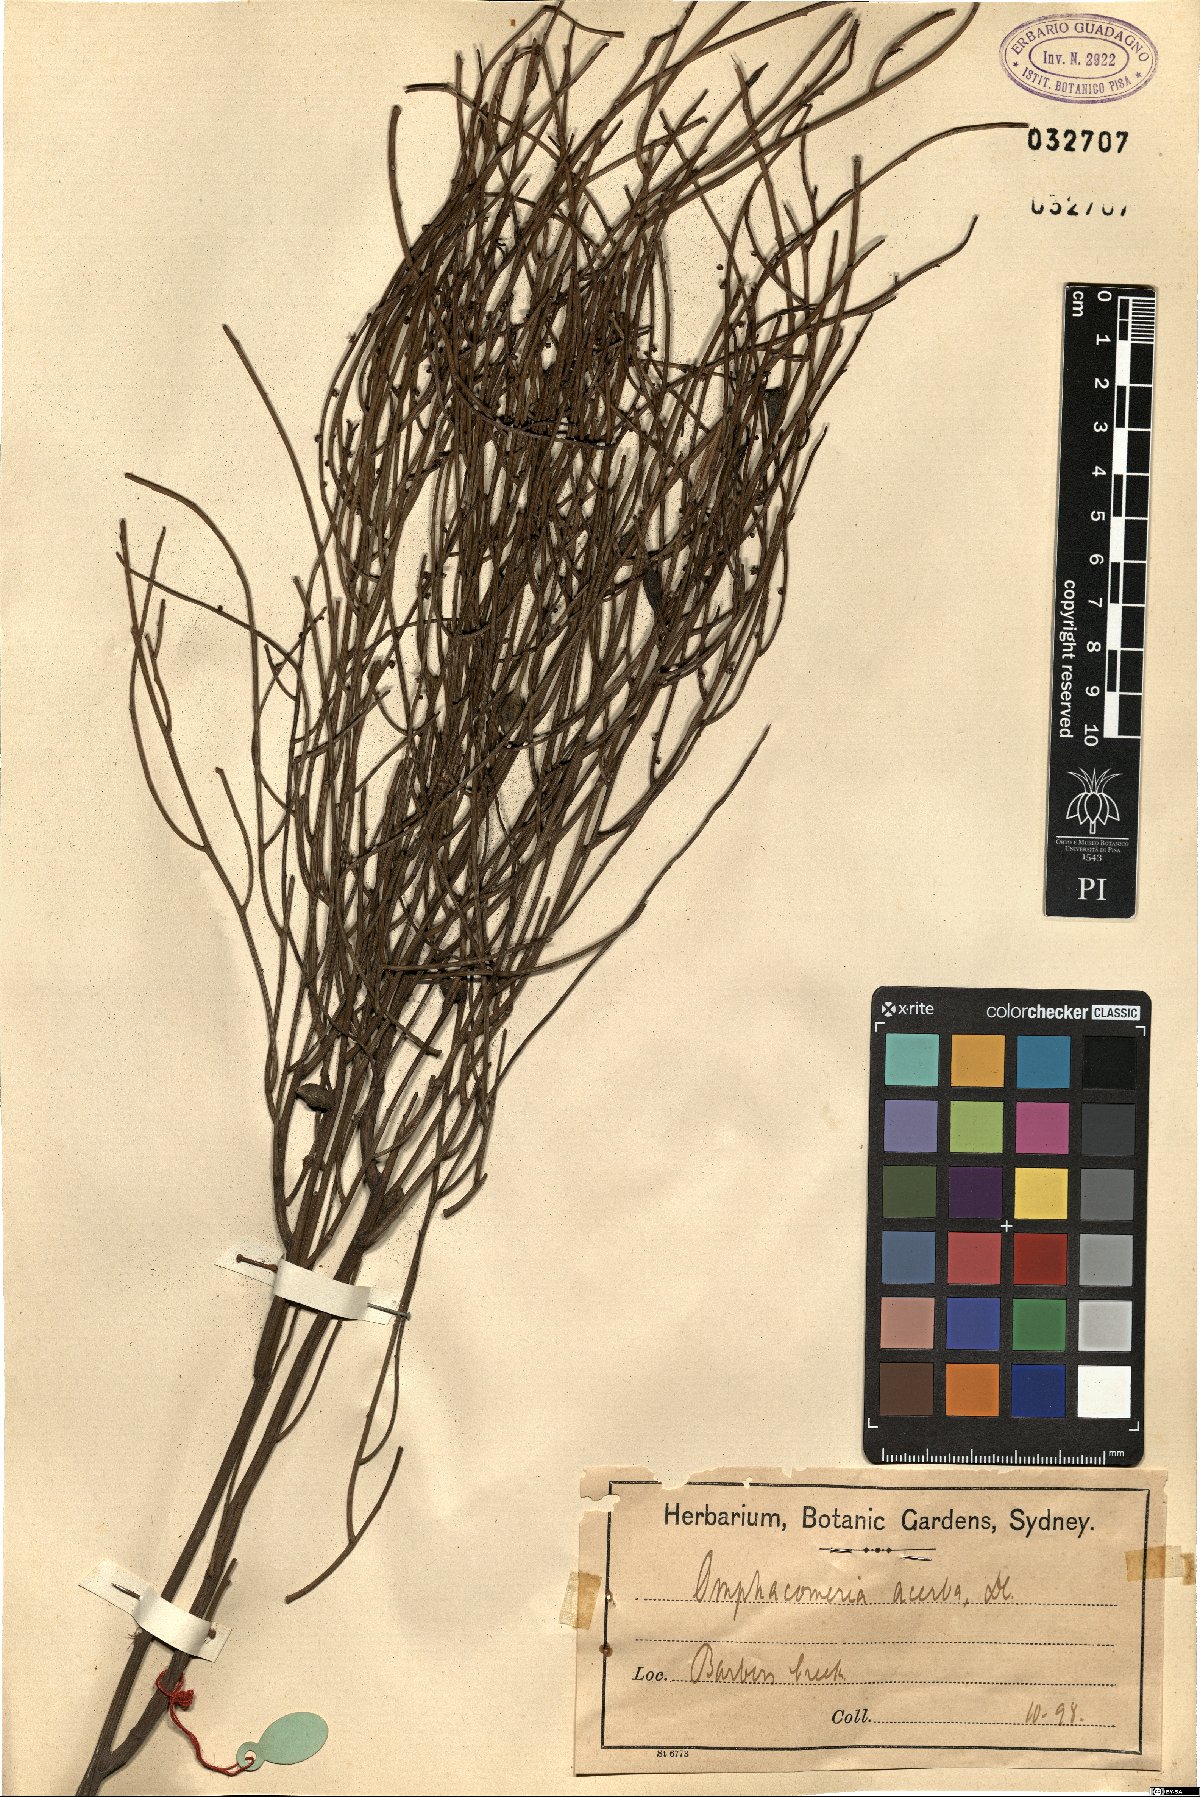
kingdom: Plantae
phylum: Tracheophyta
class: Magnoliopsida
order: Santalales
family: Santalaceae
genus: Omphacomeria
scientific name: Omphacomeria acerba
